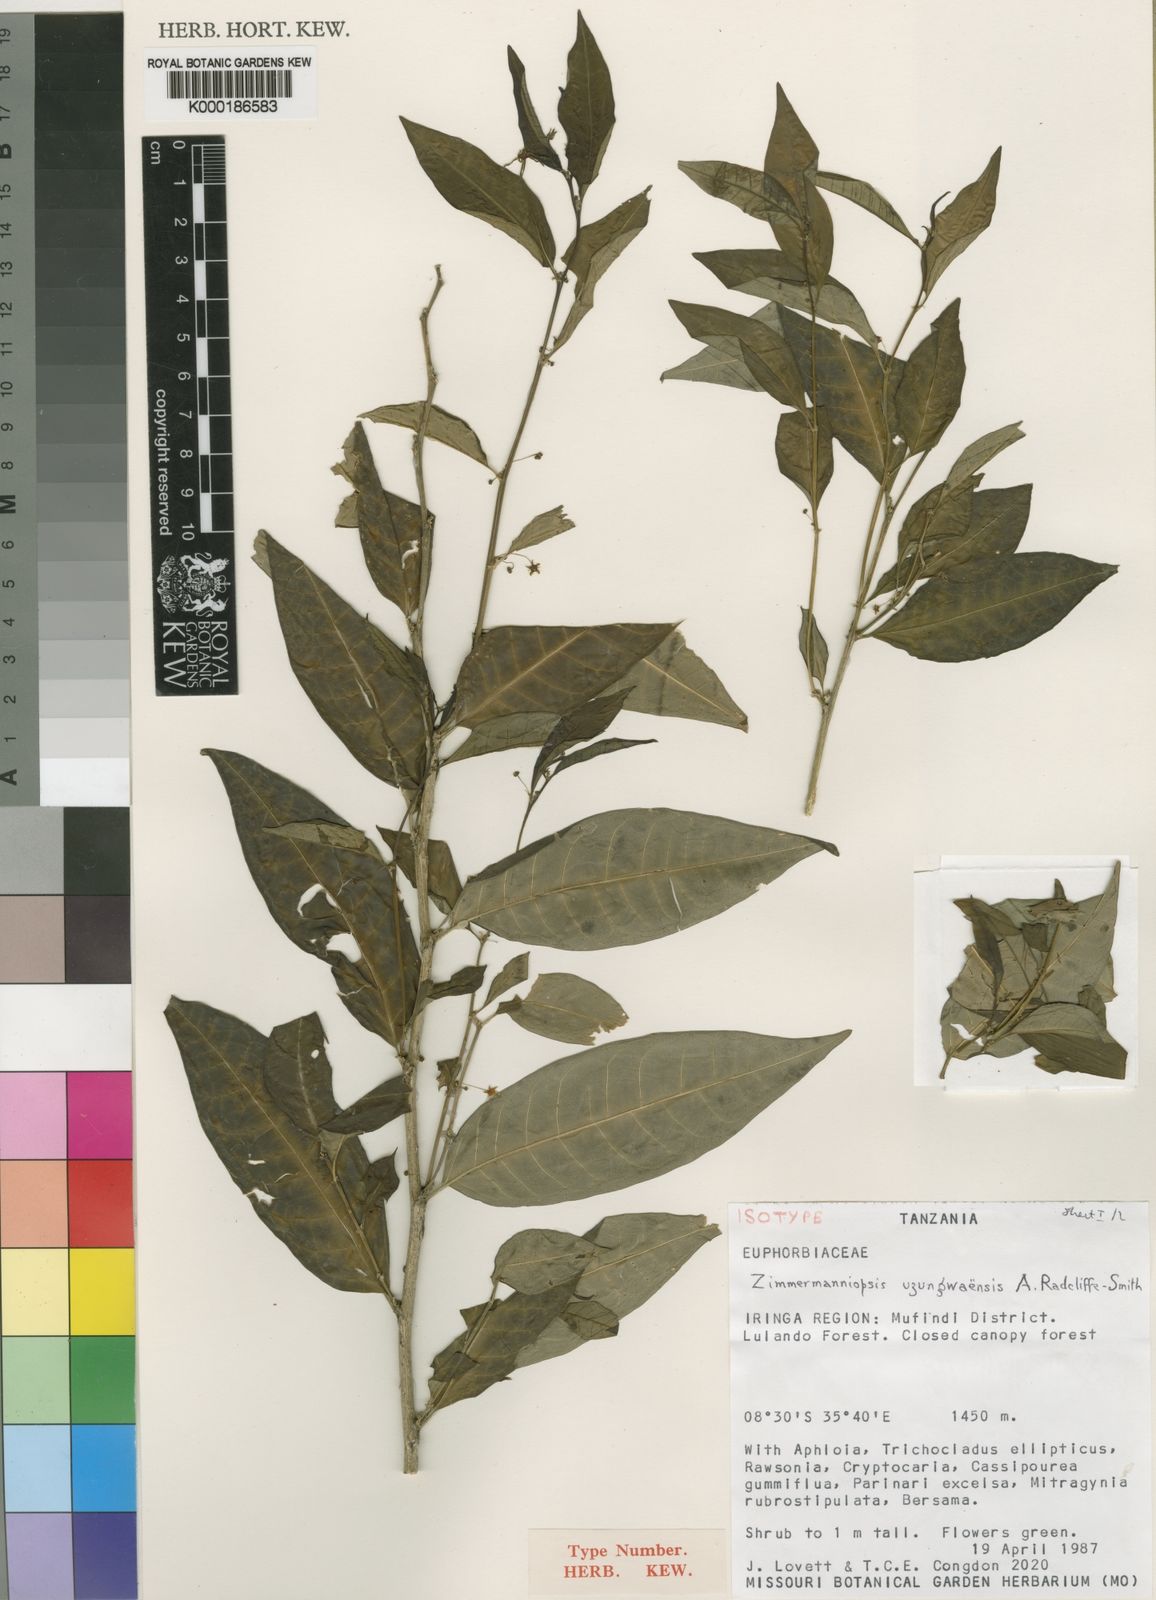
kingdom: Plantae
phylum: Tracheophyta
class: Magnoliopsida
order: Malpighiales
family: Phyllanthaceae
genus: Meineckia
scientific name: Meineckia uzungwaensis
